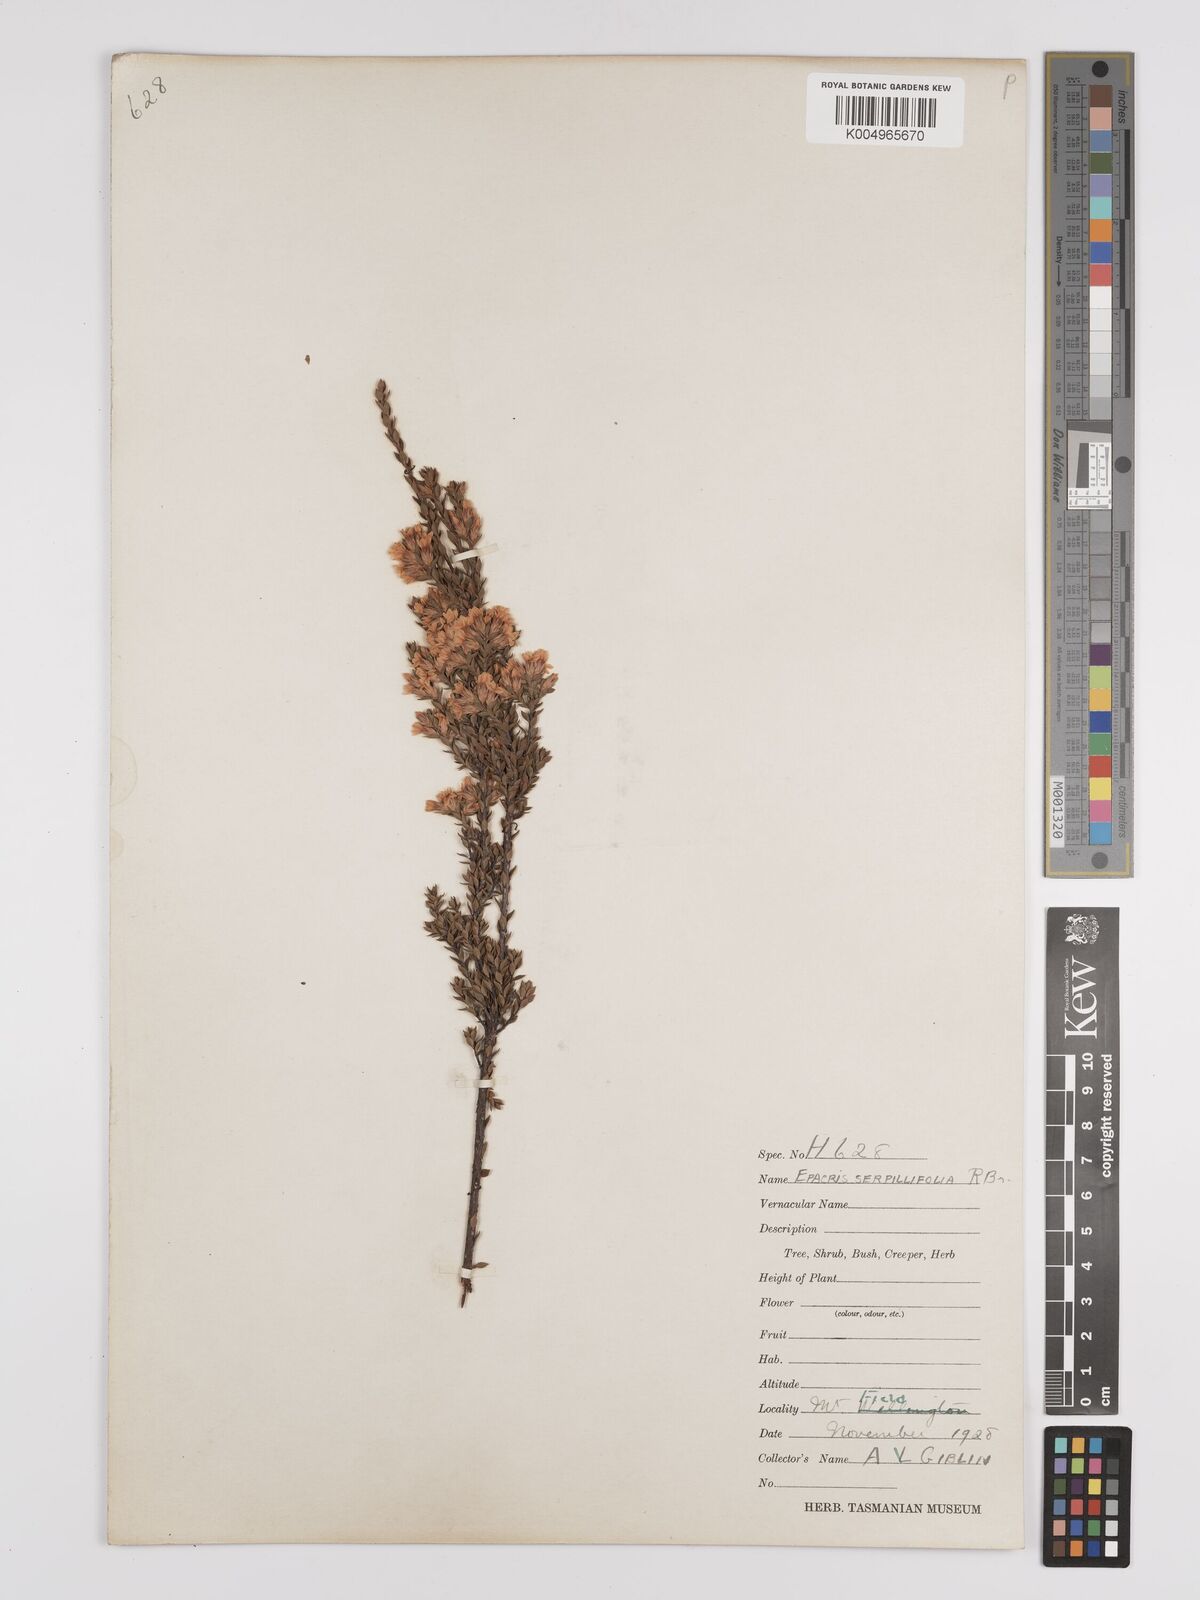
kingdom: Plantae
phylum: Tracheophyta
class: Magnoliopsida
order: Ericales
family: Ericaceae
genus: Epacris
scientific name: Epacris serpyllifolia
